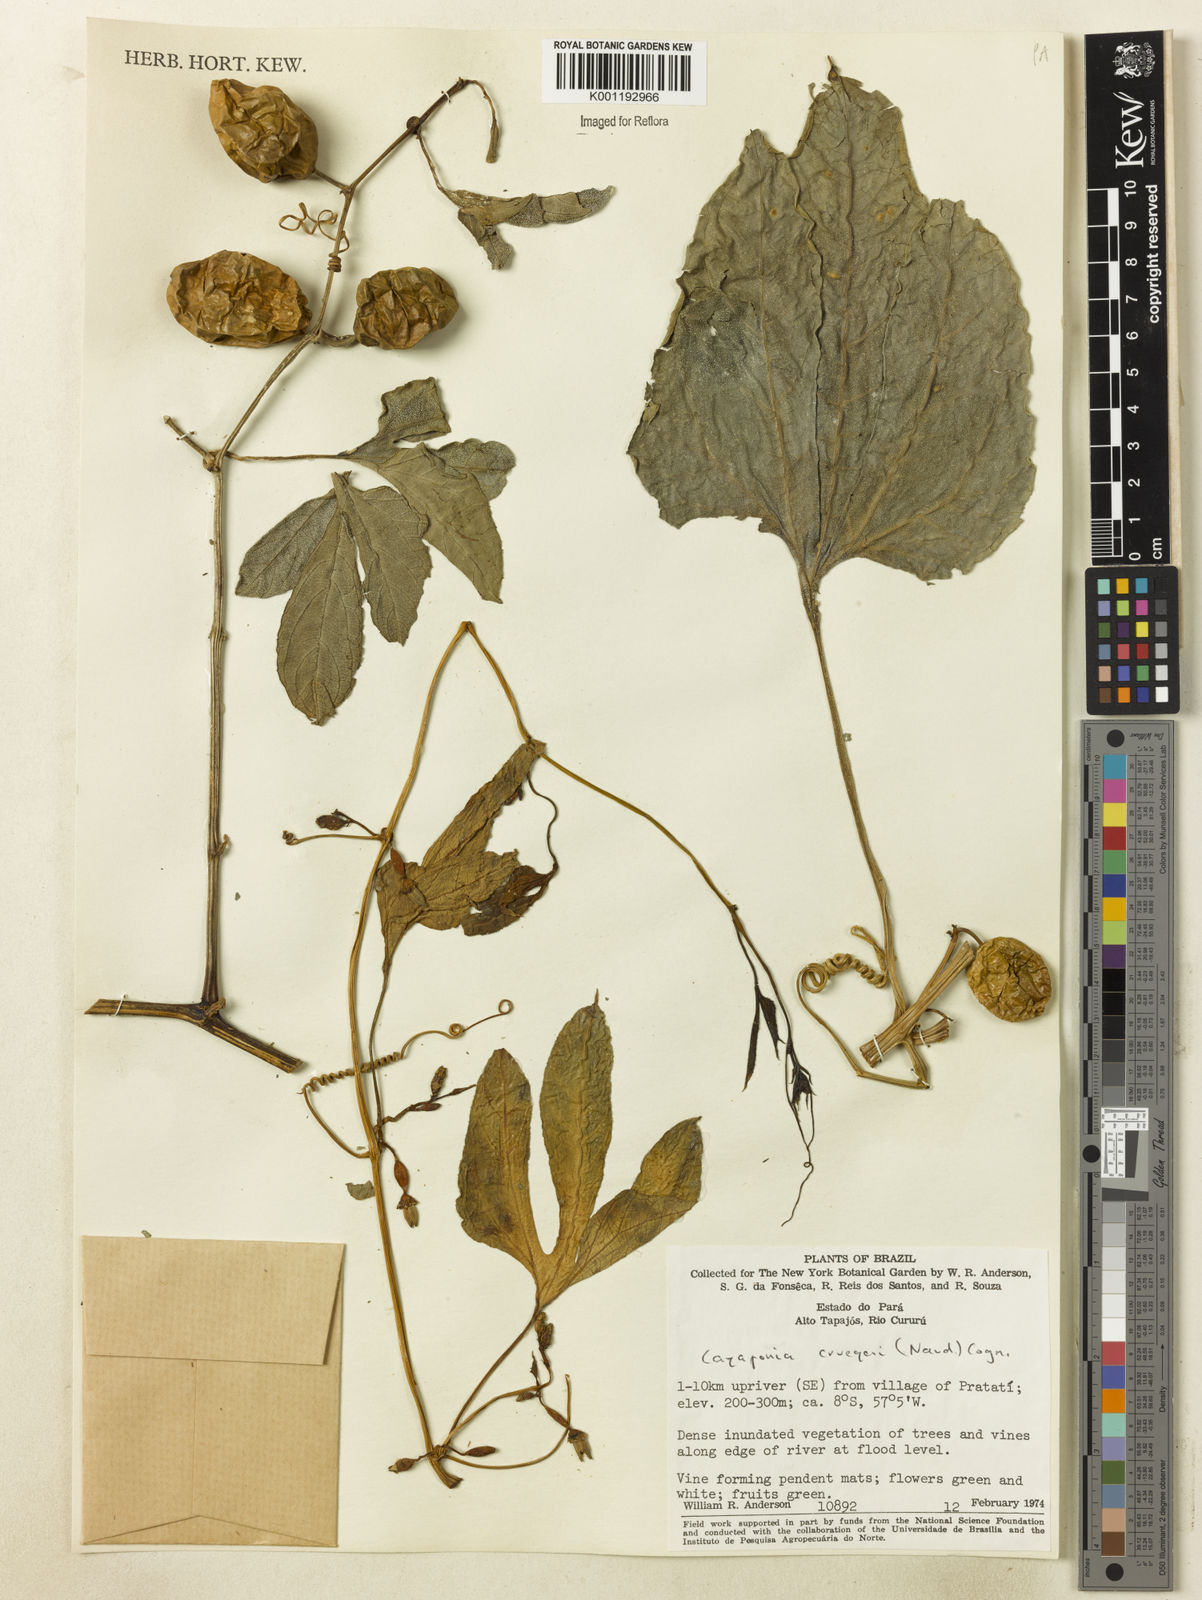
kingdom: Plantae
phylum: Tracheophyta
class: Magnoliopsida
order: Cucurbitales
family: Cucurbitaceae
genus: Cayaponia
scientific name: Cayaponia cruegeri
